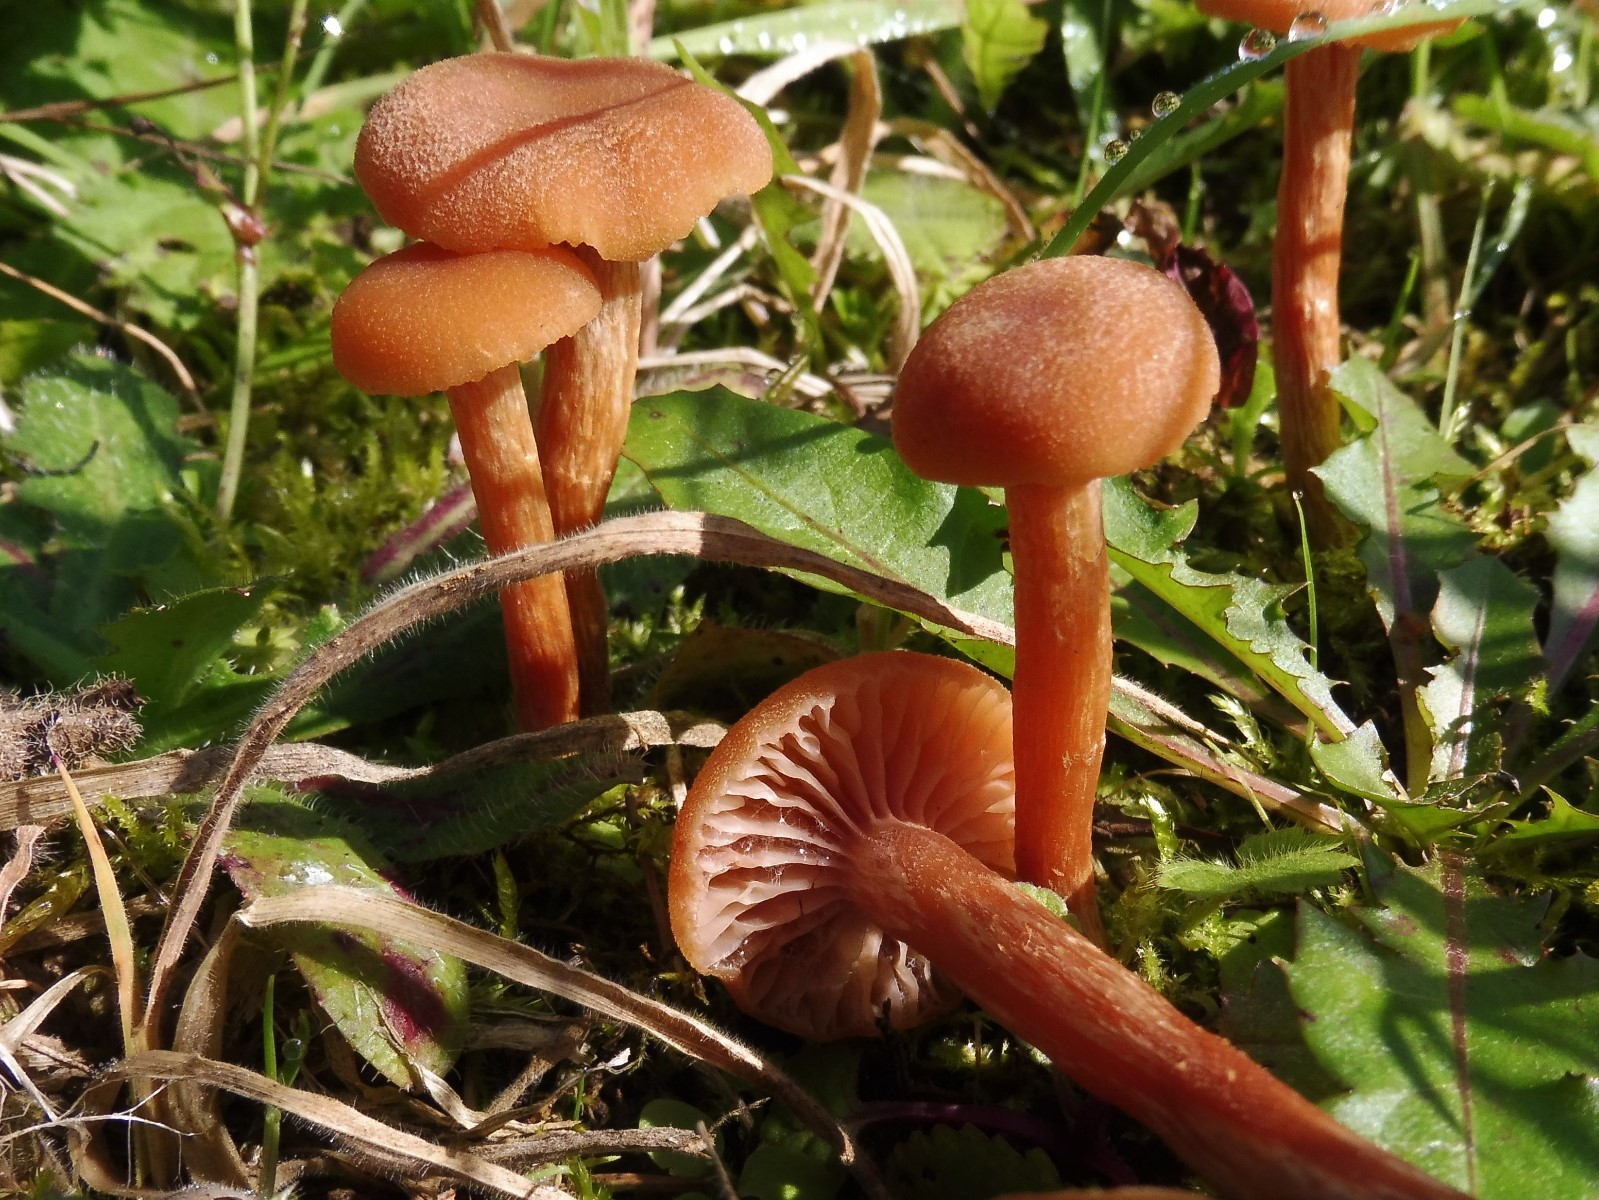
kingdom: Fungi
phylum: Basidiomycota
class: Agaricomycetes
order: Agaricales
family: Hydnangiaceae
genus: Laccaria
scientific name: Laccaria laccata
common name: rød ametysthat
